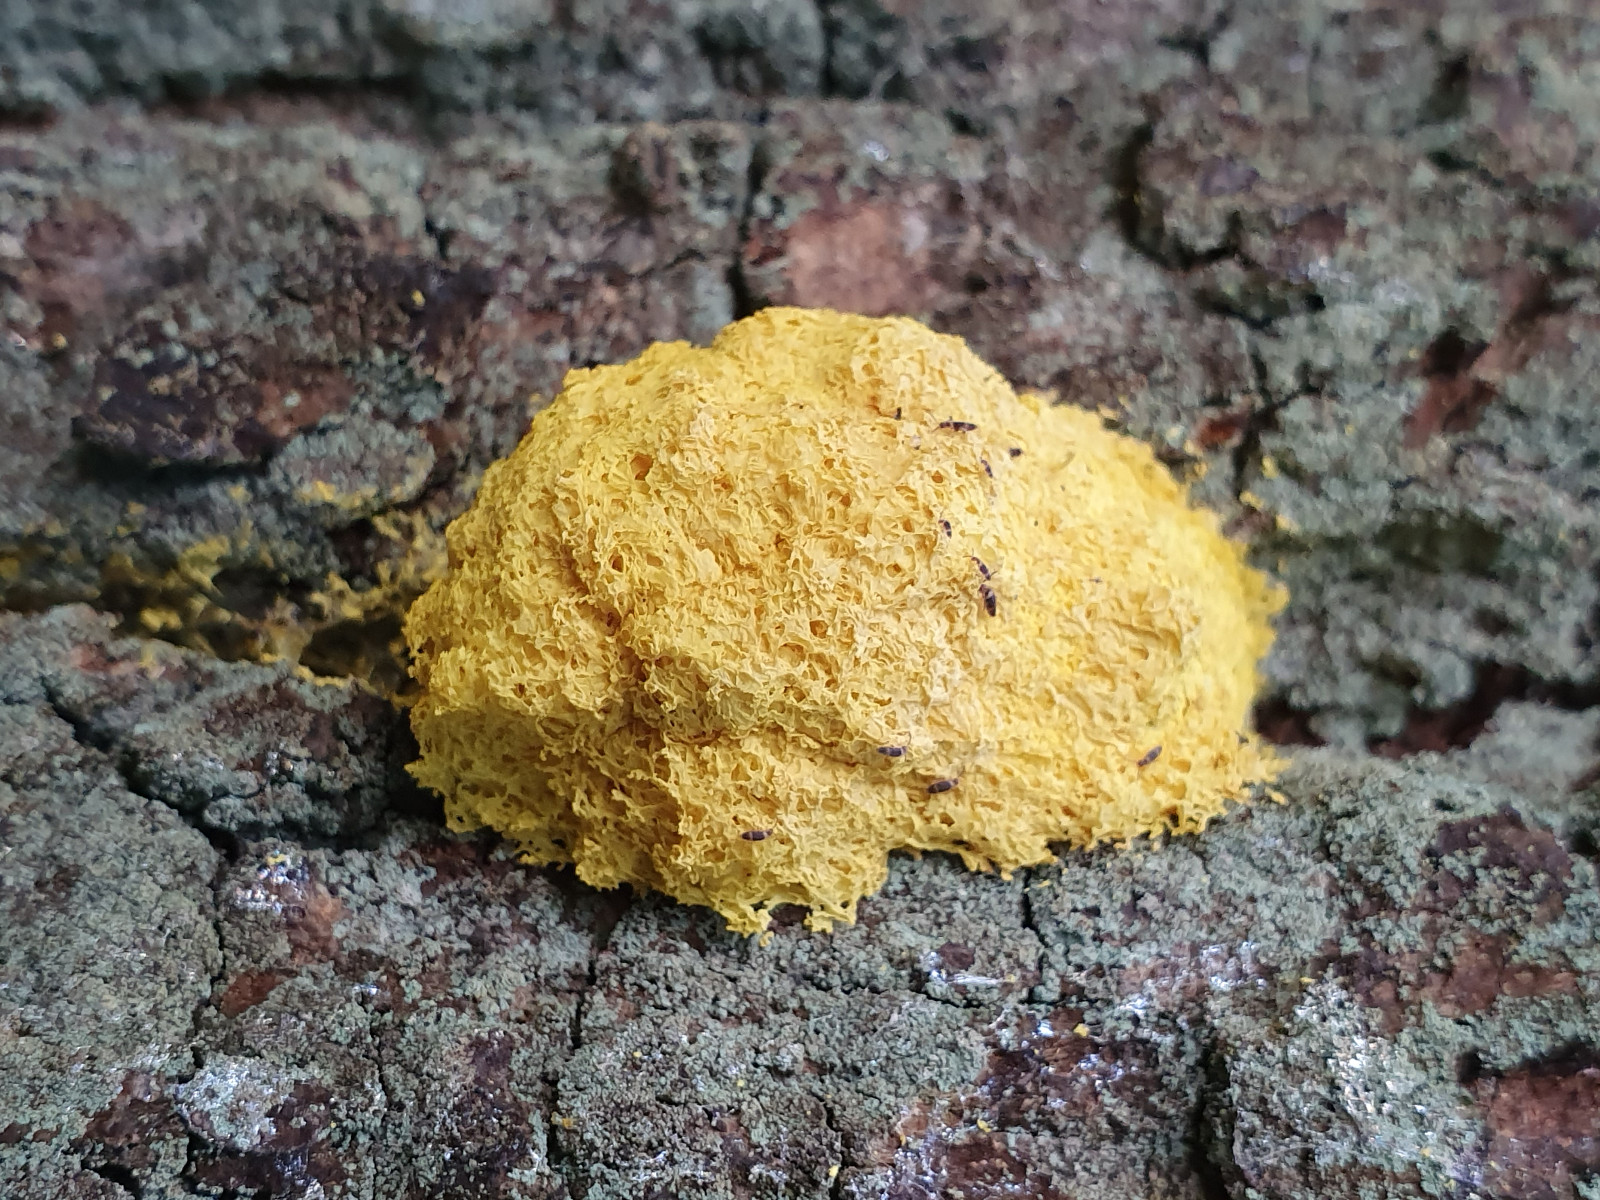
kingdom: Protozoa
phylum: Mycetozoa
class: Myxomycetes
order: Physarales
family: Physaraceae
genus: Fuligo
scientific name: Fuligo septica
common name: gul troldsmør
